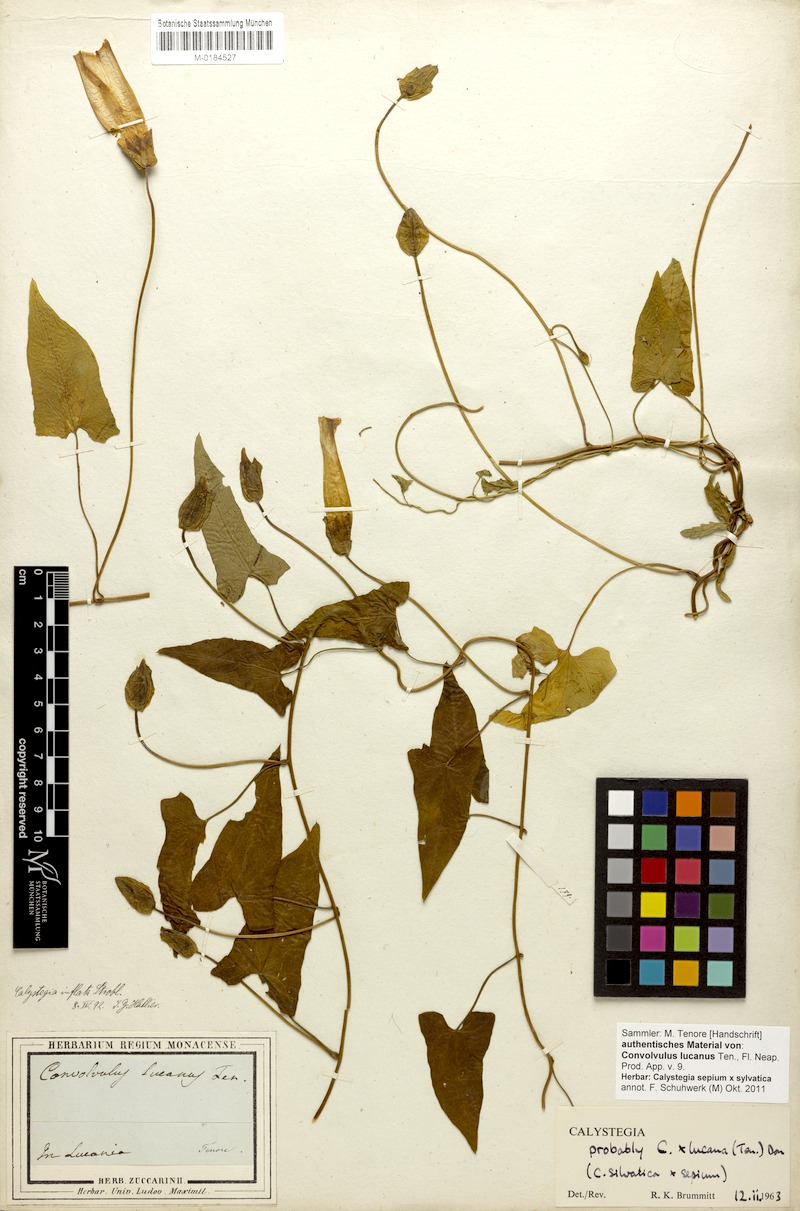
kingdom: Plantae
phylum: Tracheophyta
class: Magnoliopsida
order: Solanales
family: Convolvulaceae
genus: Calystegia
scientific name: Calystegia silvatica
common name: Large bindweed
